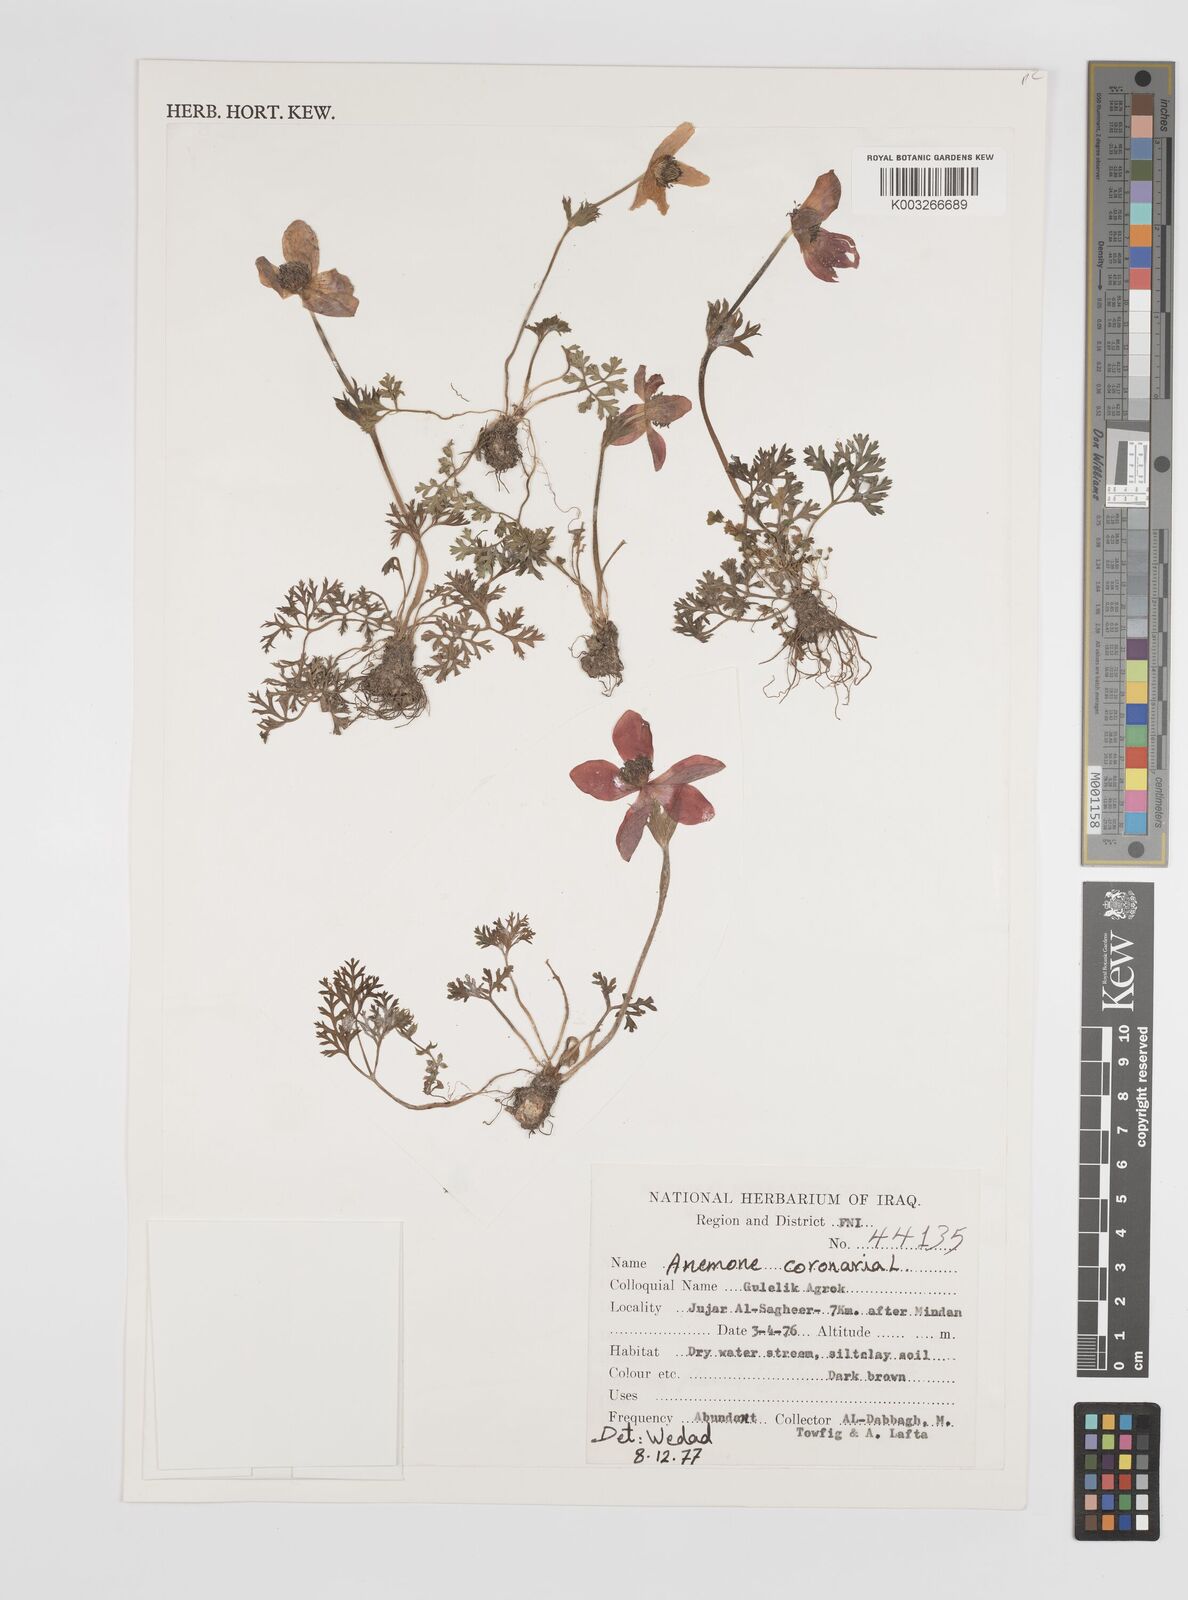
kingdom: Plantae
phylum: Tracheophyta
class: Magnoliopsida
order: Ranunculales
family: Ranunculaceae
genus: Anemone
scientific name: Anemone coronaria
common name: Poppy anemone
